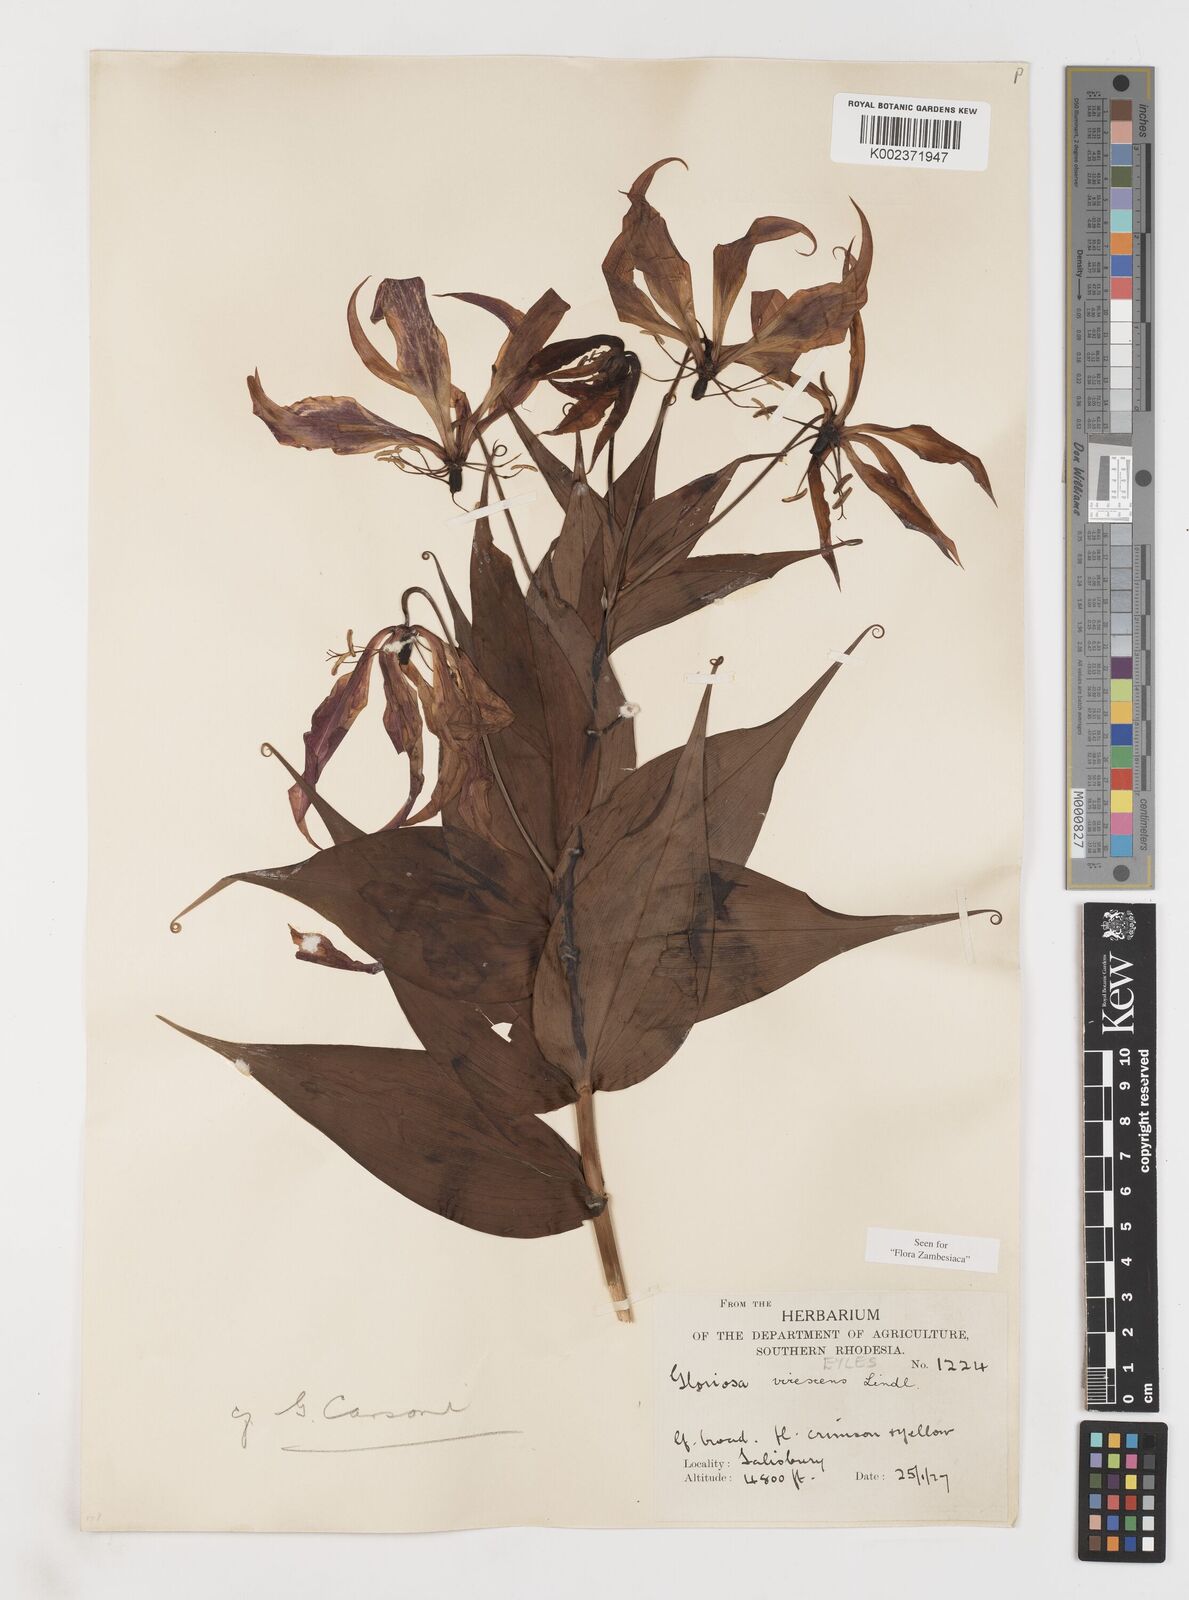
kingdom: Plantae
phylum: Tracheophyta
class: Liliopsida
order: Liliales
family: Colchicaceae
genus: Gloriosa
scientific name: Gloriosa simplex
